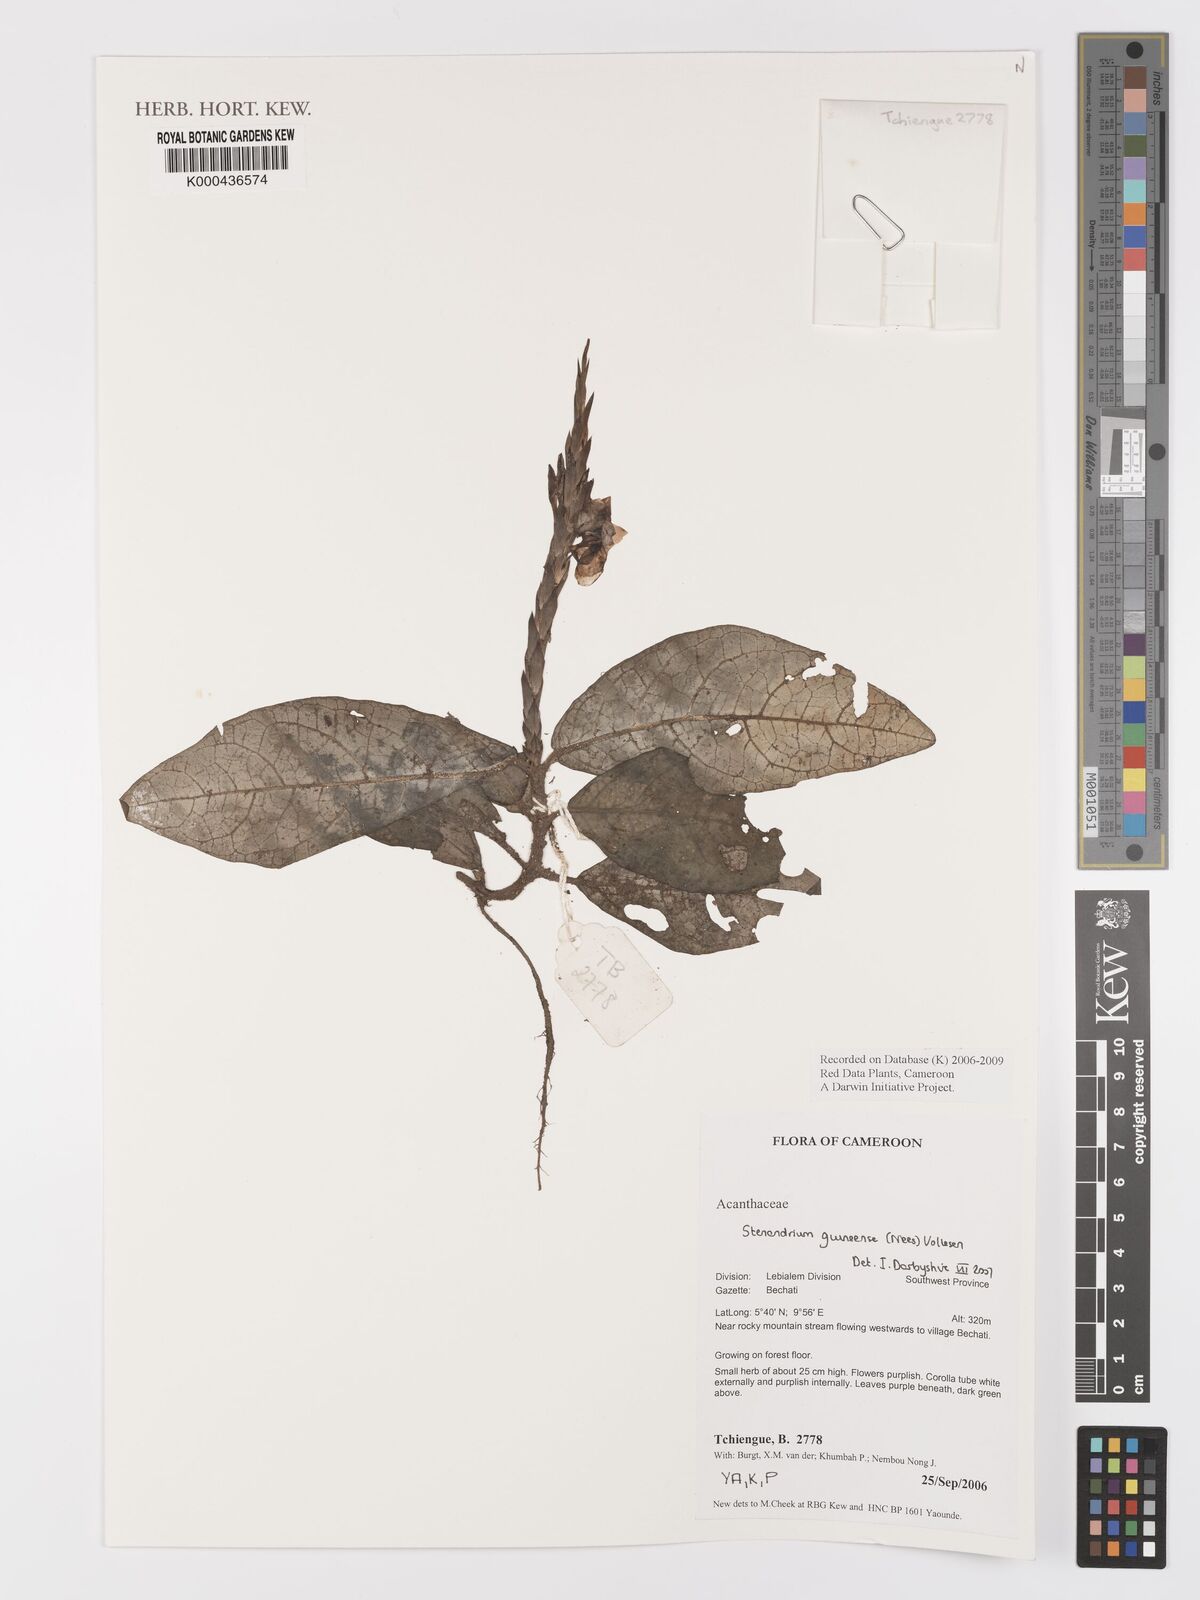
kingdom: Plantae
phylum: Tracheophyta
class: Magnoliopsida
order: Lamiales
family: Acanthaceae
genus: Stenandriopsis
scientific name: Stenandriopsis guineensis
